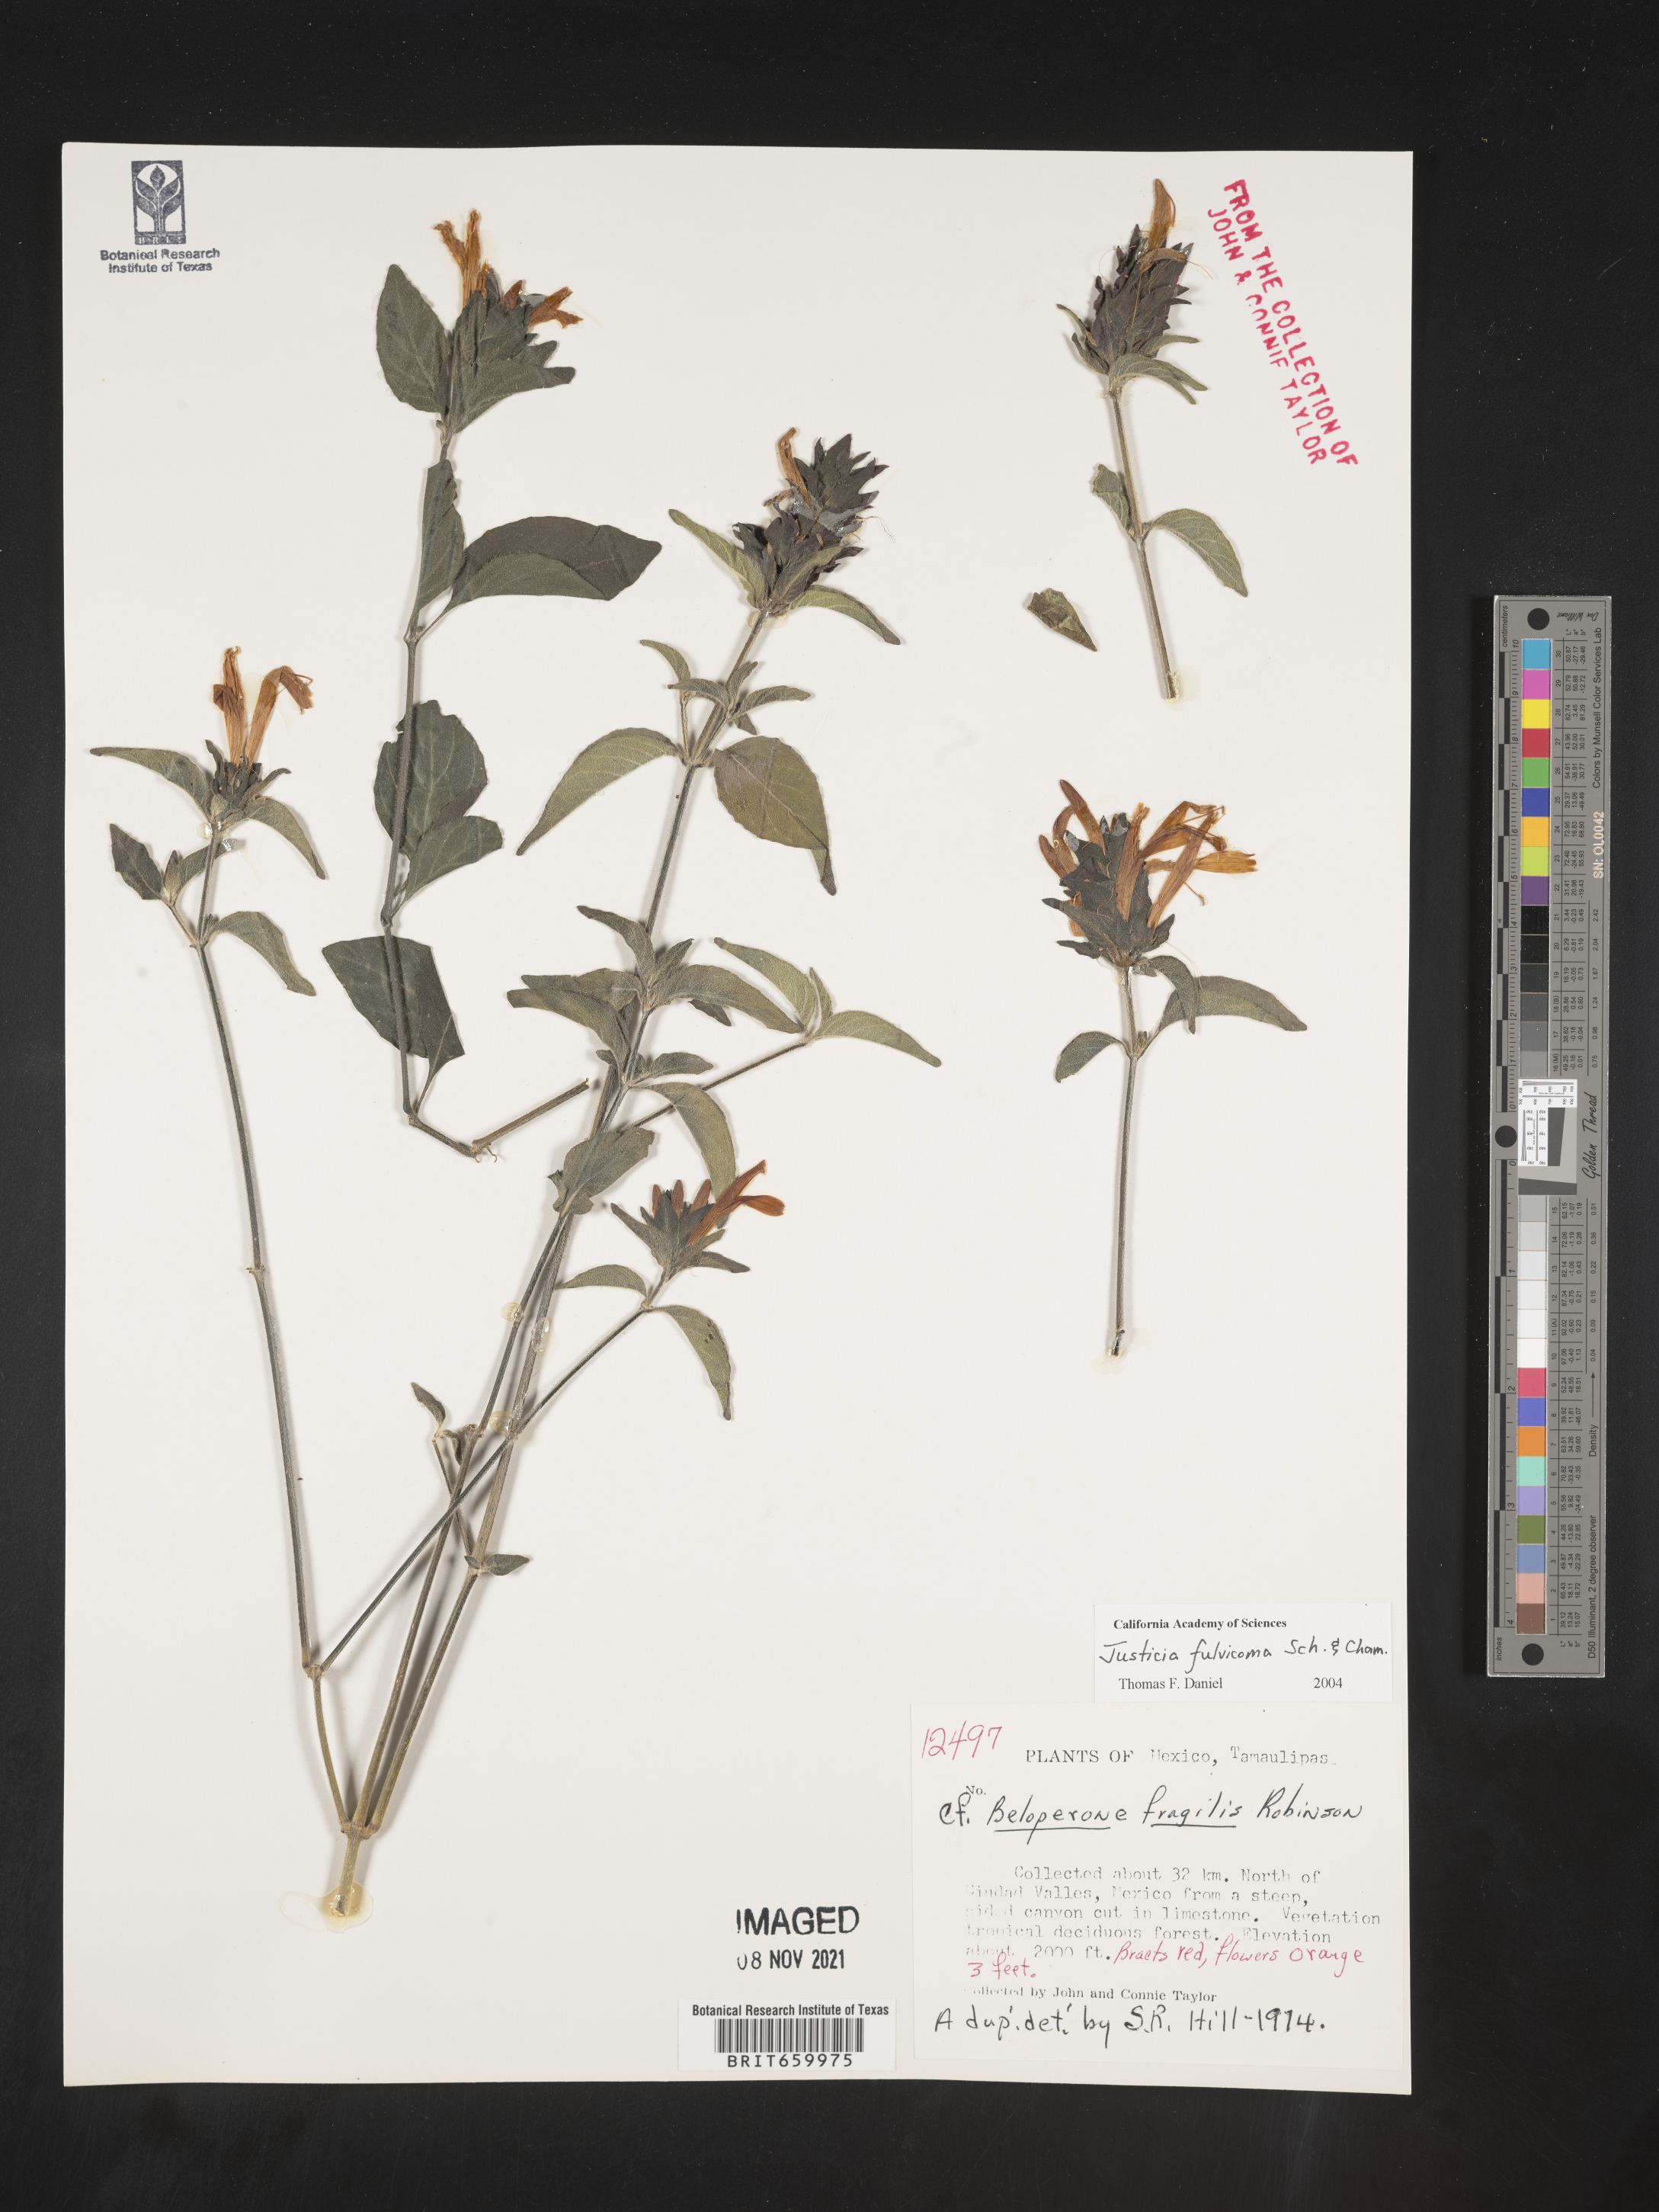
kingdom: Plantae
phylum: Tracheophyta
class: Magnoliopsida
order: Lamiales
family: Acanthaceae
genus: Justicia
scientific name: Justicia
